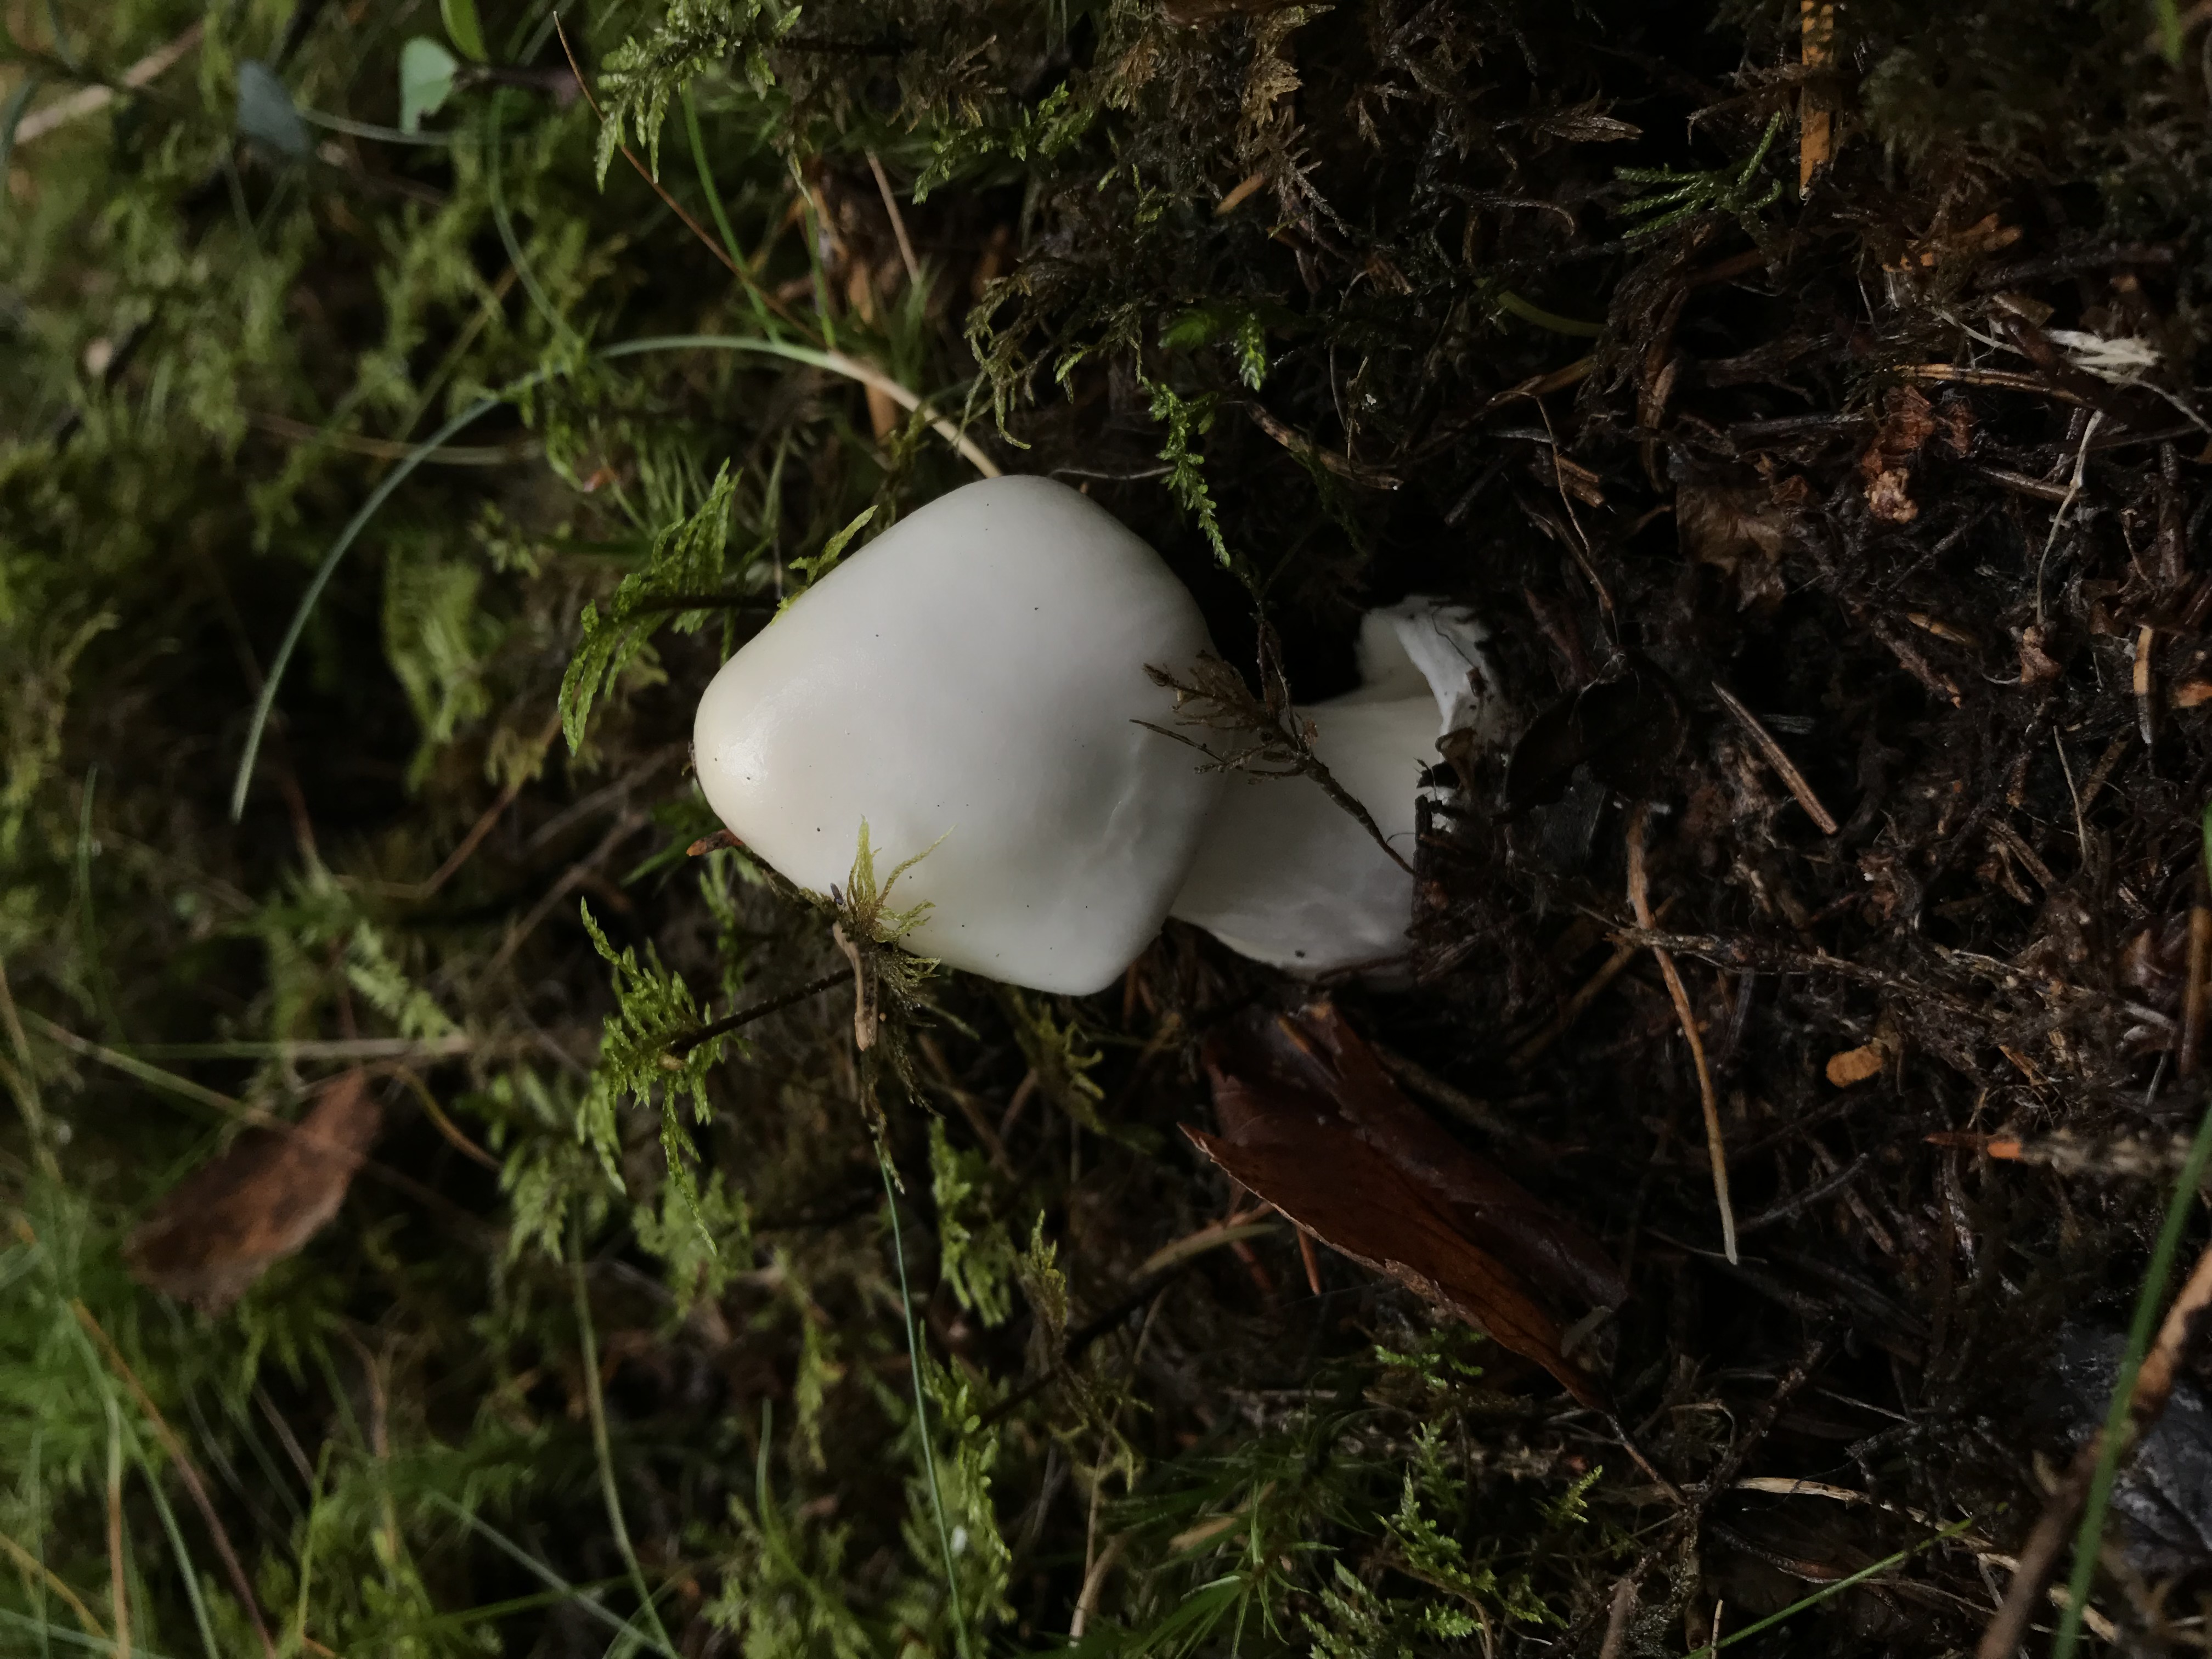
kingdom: Fungi
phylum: Basidiomycota
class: Agaricomycetes
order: Agaricales
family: Amanitaceae
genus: Amanita
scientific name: Amanita virosa
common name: Destroying angel
